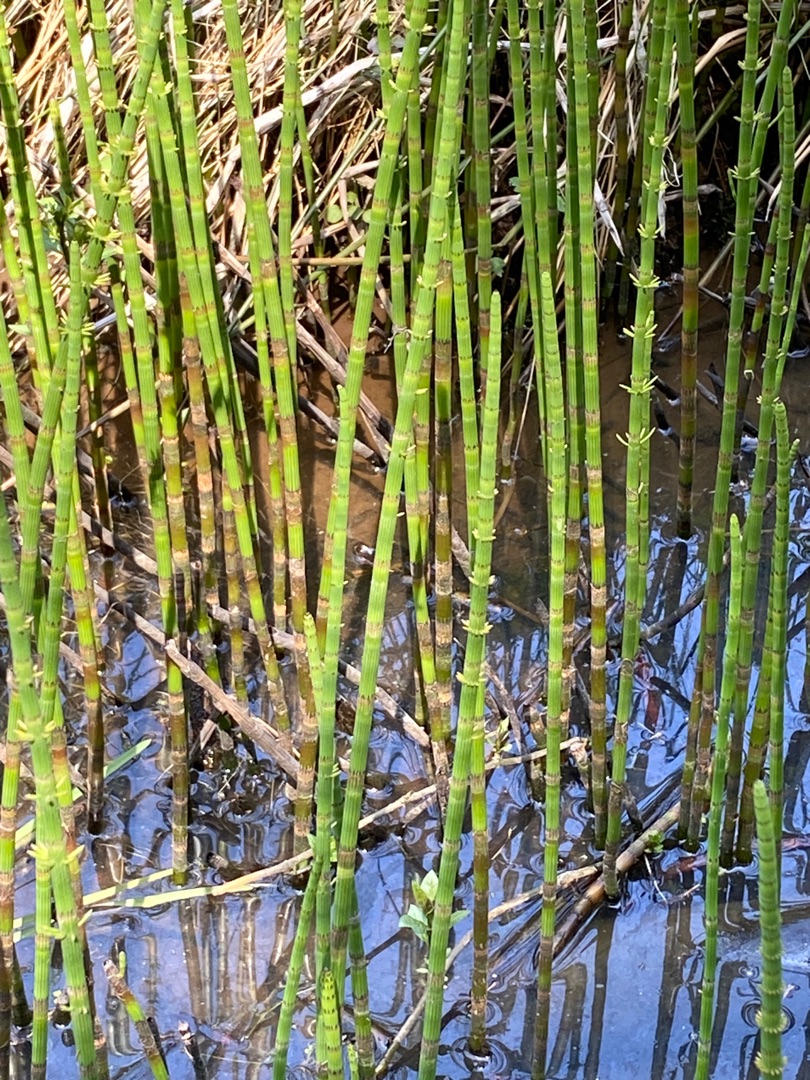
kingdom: Plantae
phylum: Tracheophyta
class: Polypodiopsida
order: Equisetales
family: Equisetaceae
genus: Equisetum
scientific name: Equisetum fluviatile
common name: Dynd-padderok
